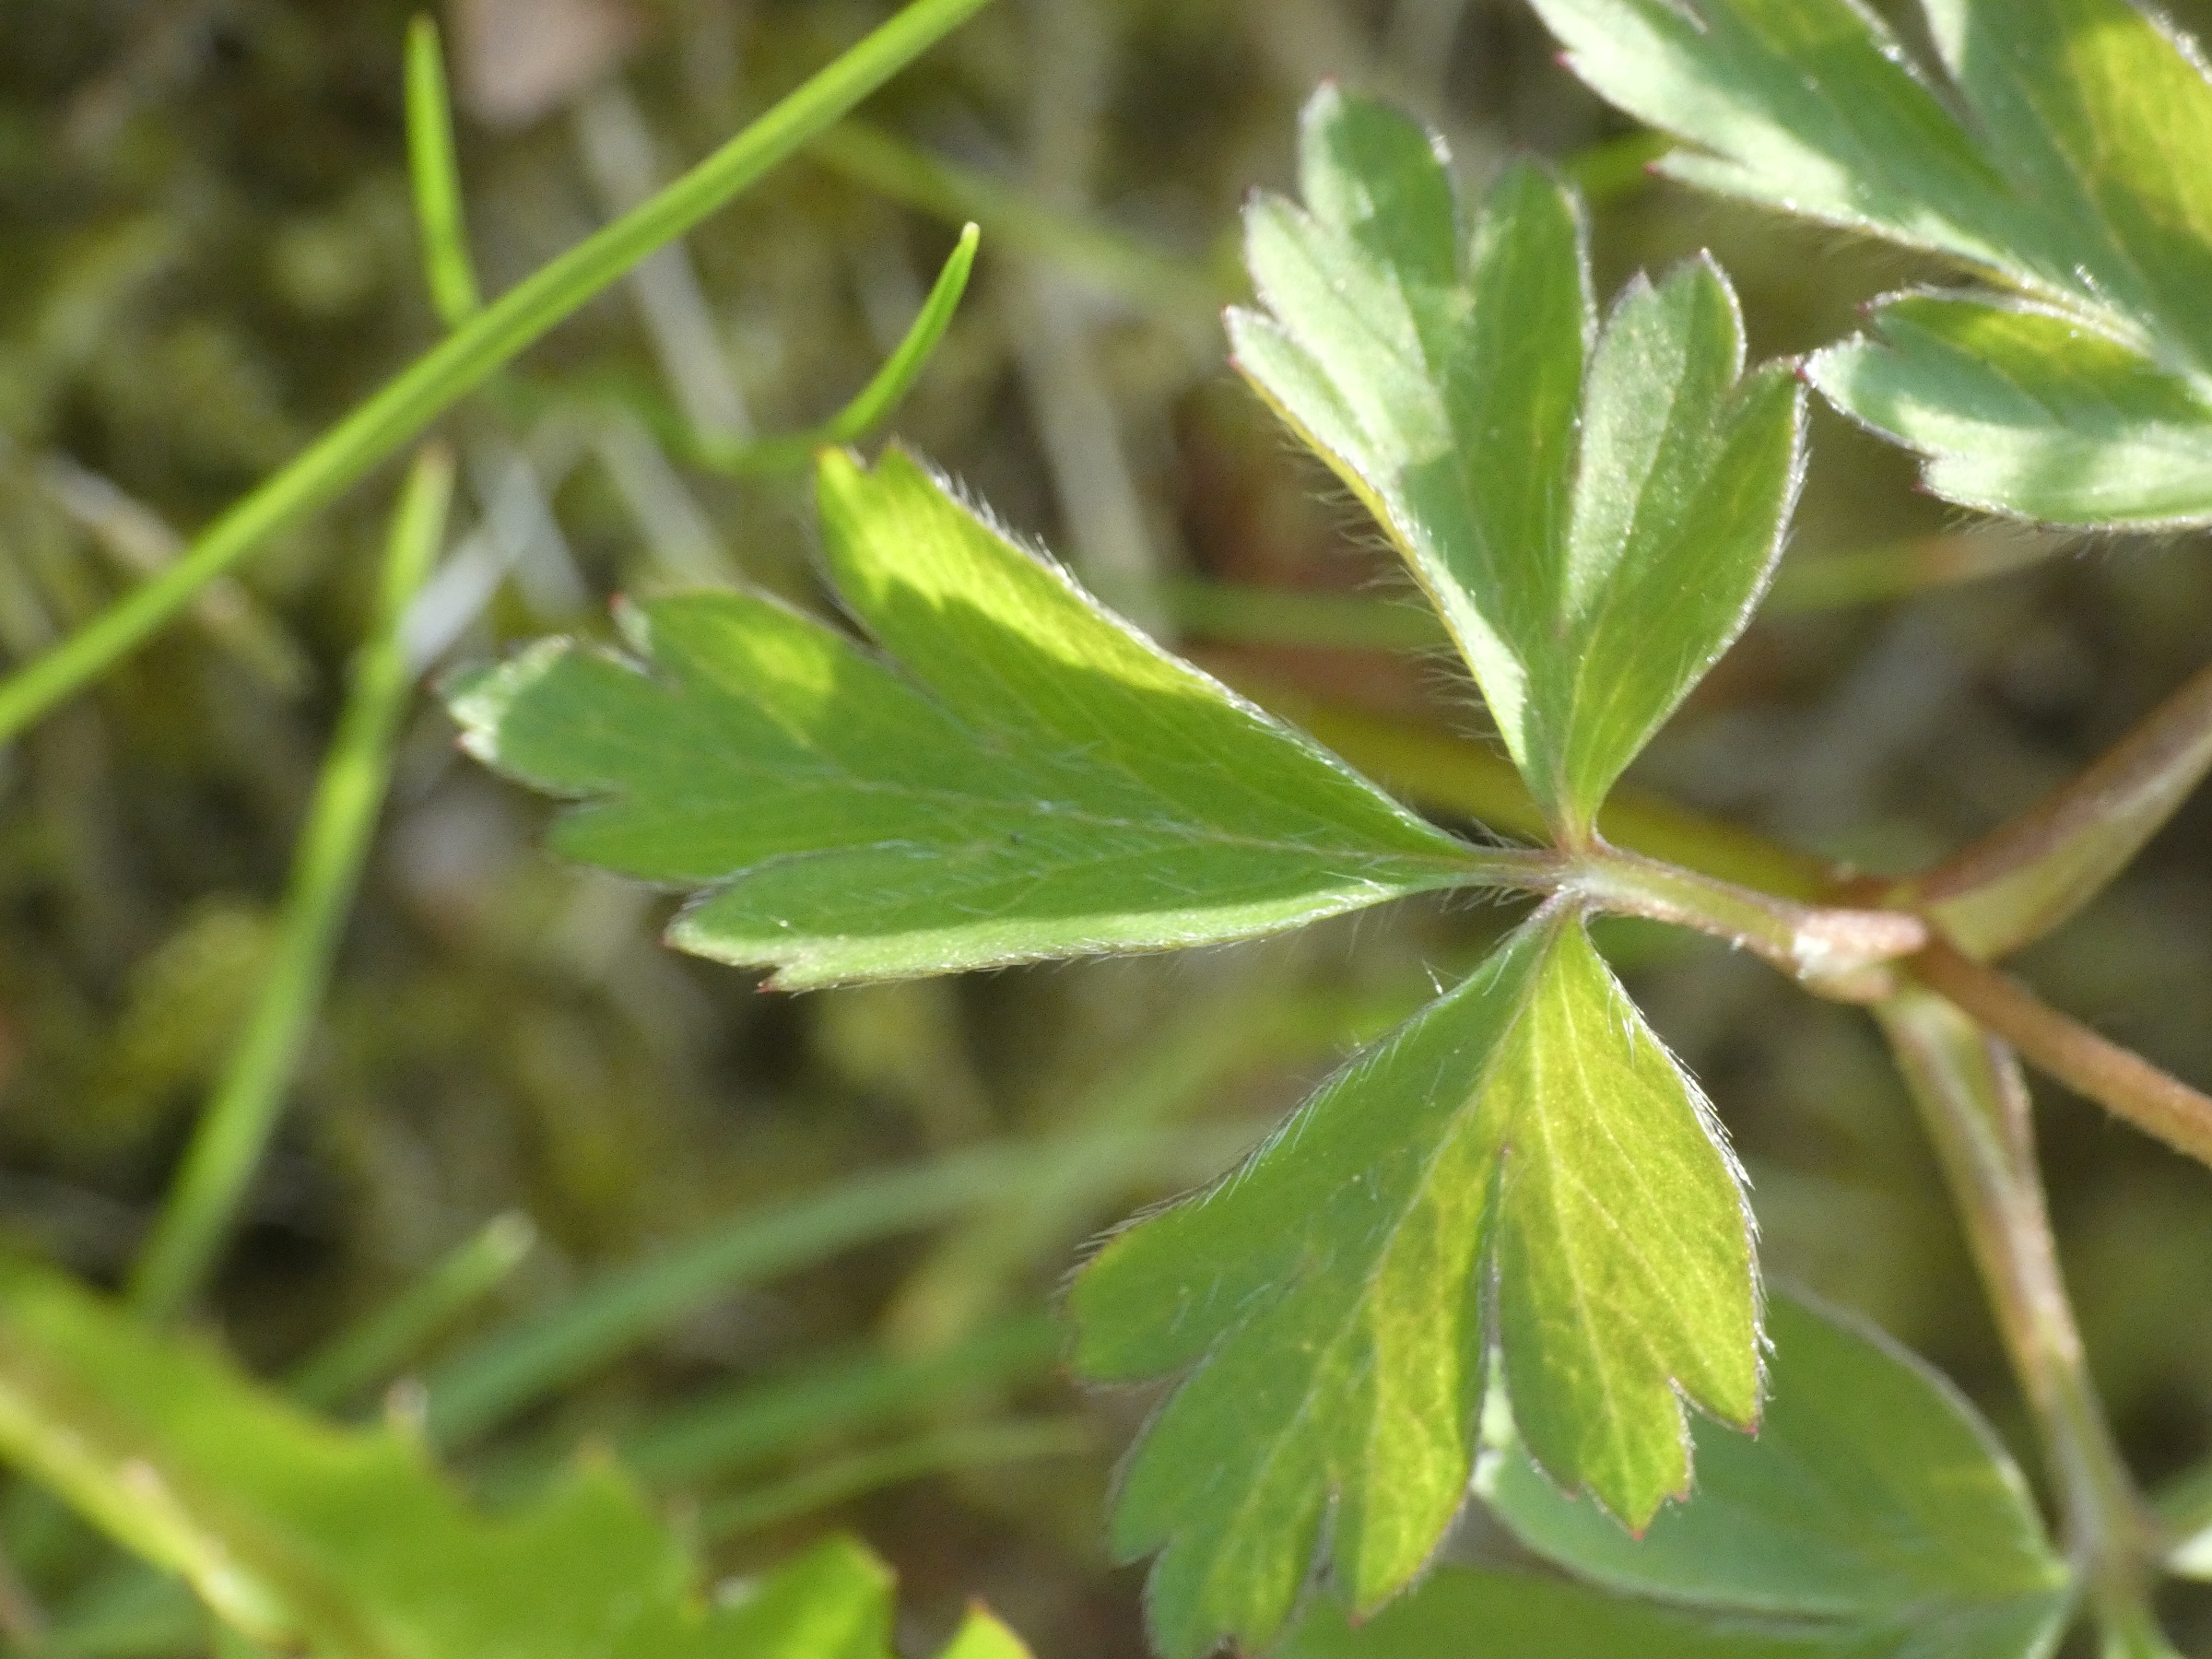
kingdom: Plantae
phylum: Tracheophyta
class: Magnoliopsida
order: Ranunculales
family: Ranunculaceae
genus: Anemone
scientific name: Anemone nemorosa
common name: Hvid anemone
